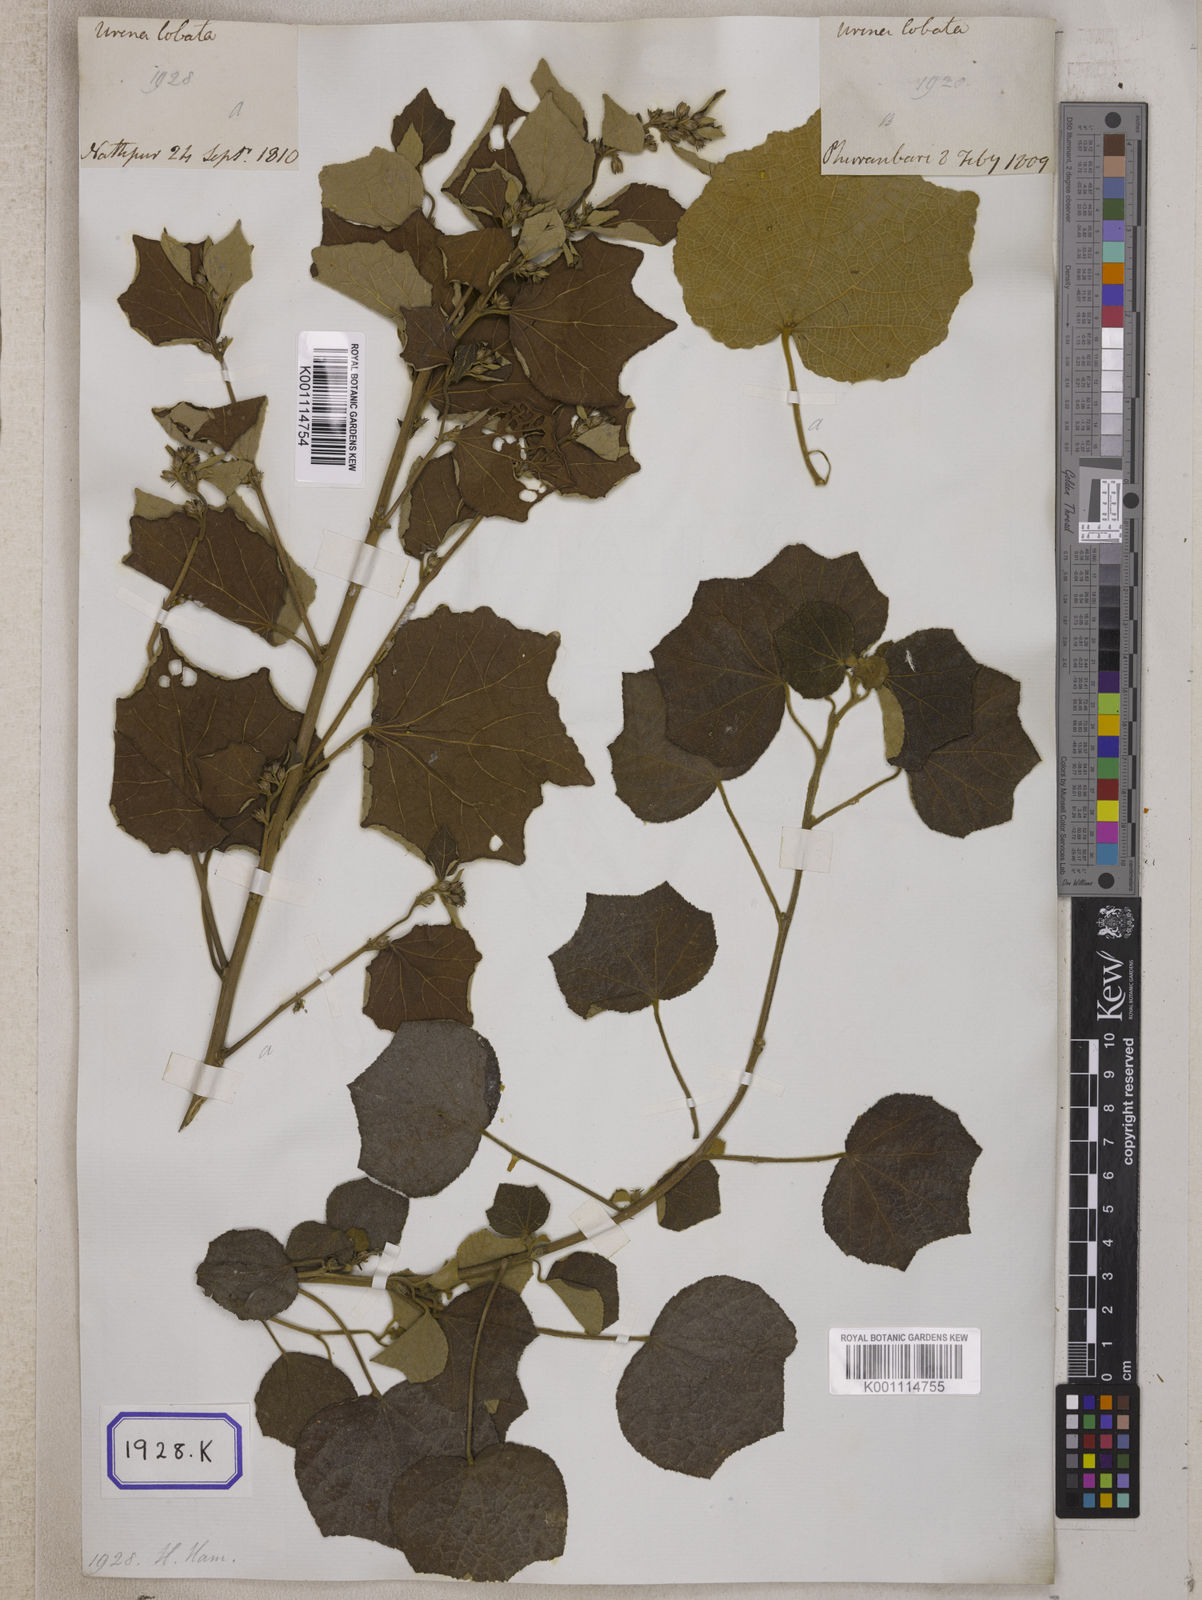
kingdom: Plantae
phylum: Tracheophyta
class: Magnoliopsida
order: Malvales
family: Malvaceae
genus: Urena
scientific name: Urena lobata
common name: Caesarweed
